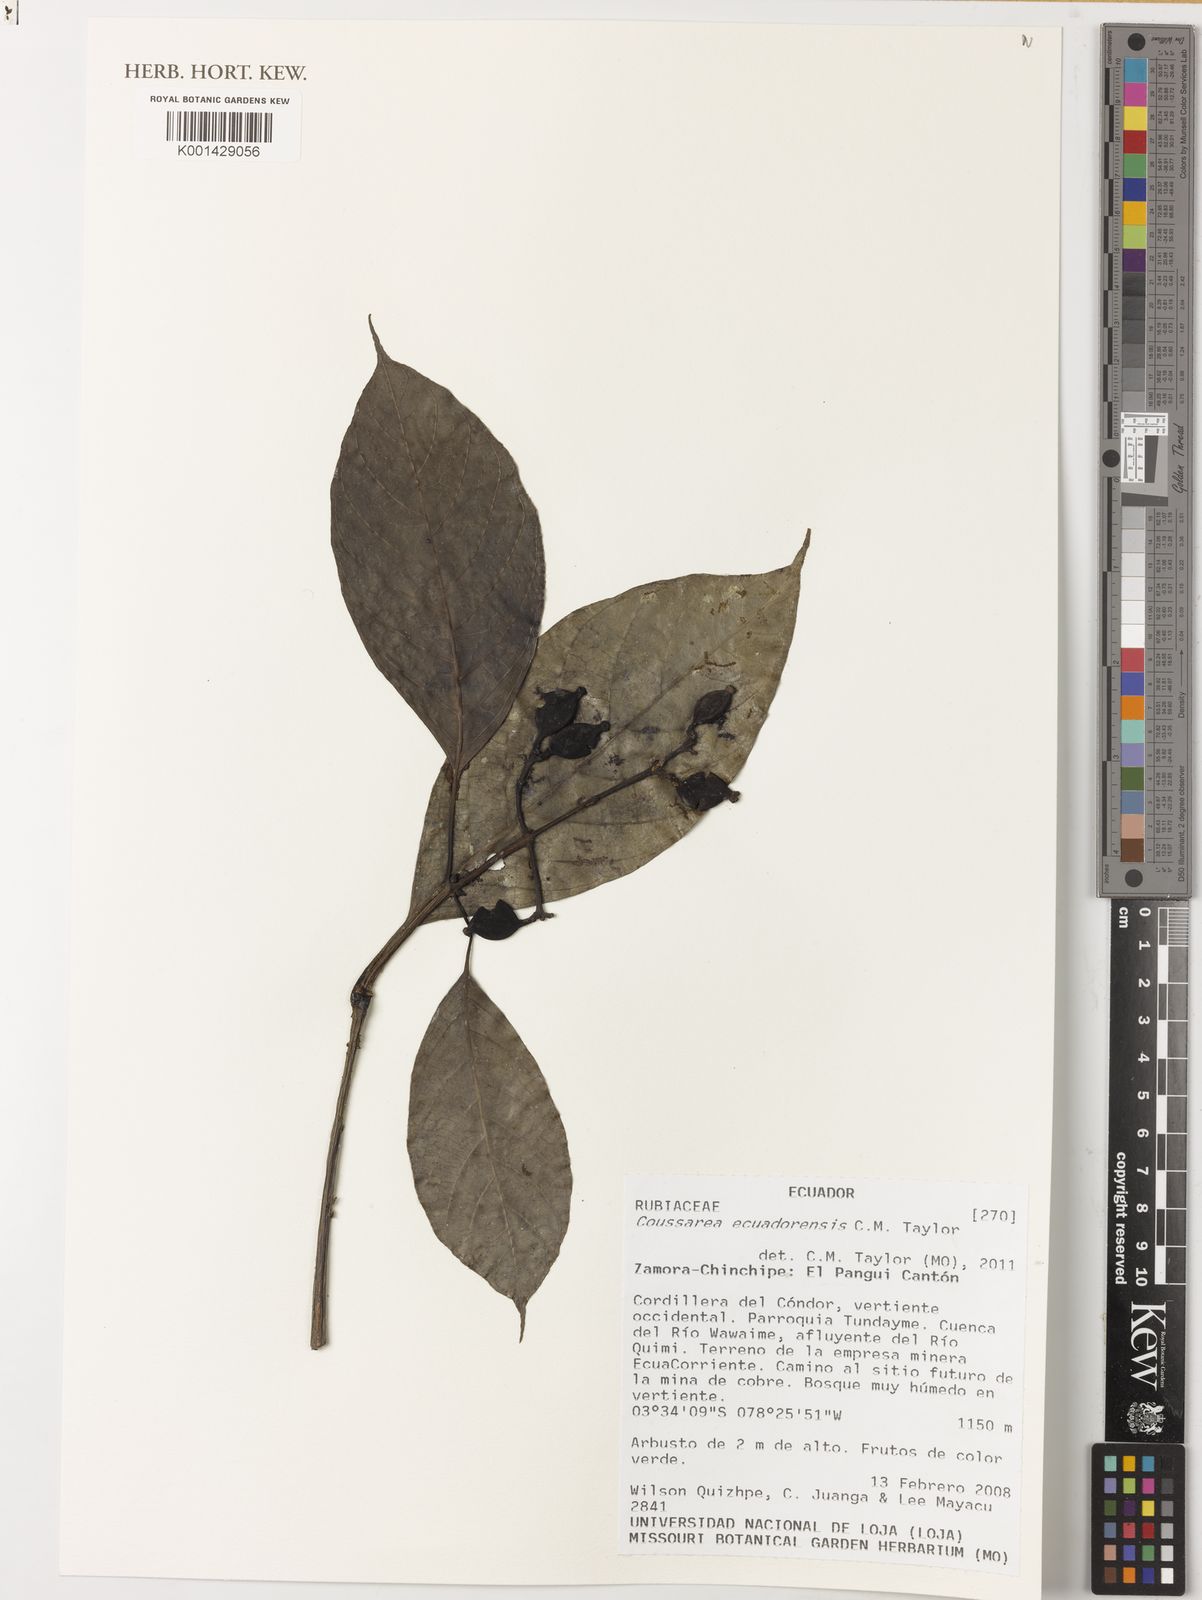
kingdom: Plantae
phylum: Tracheophyta
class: Magnoliopsida
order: Gentianales
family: Rubiaceae
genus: Coussarea
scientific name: Coussarea ecuadorensis
